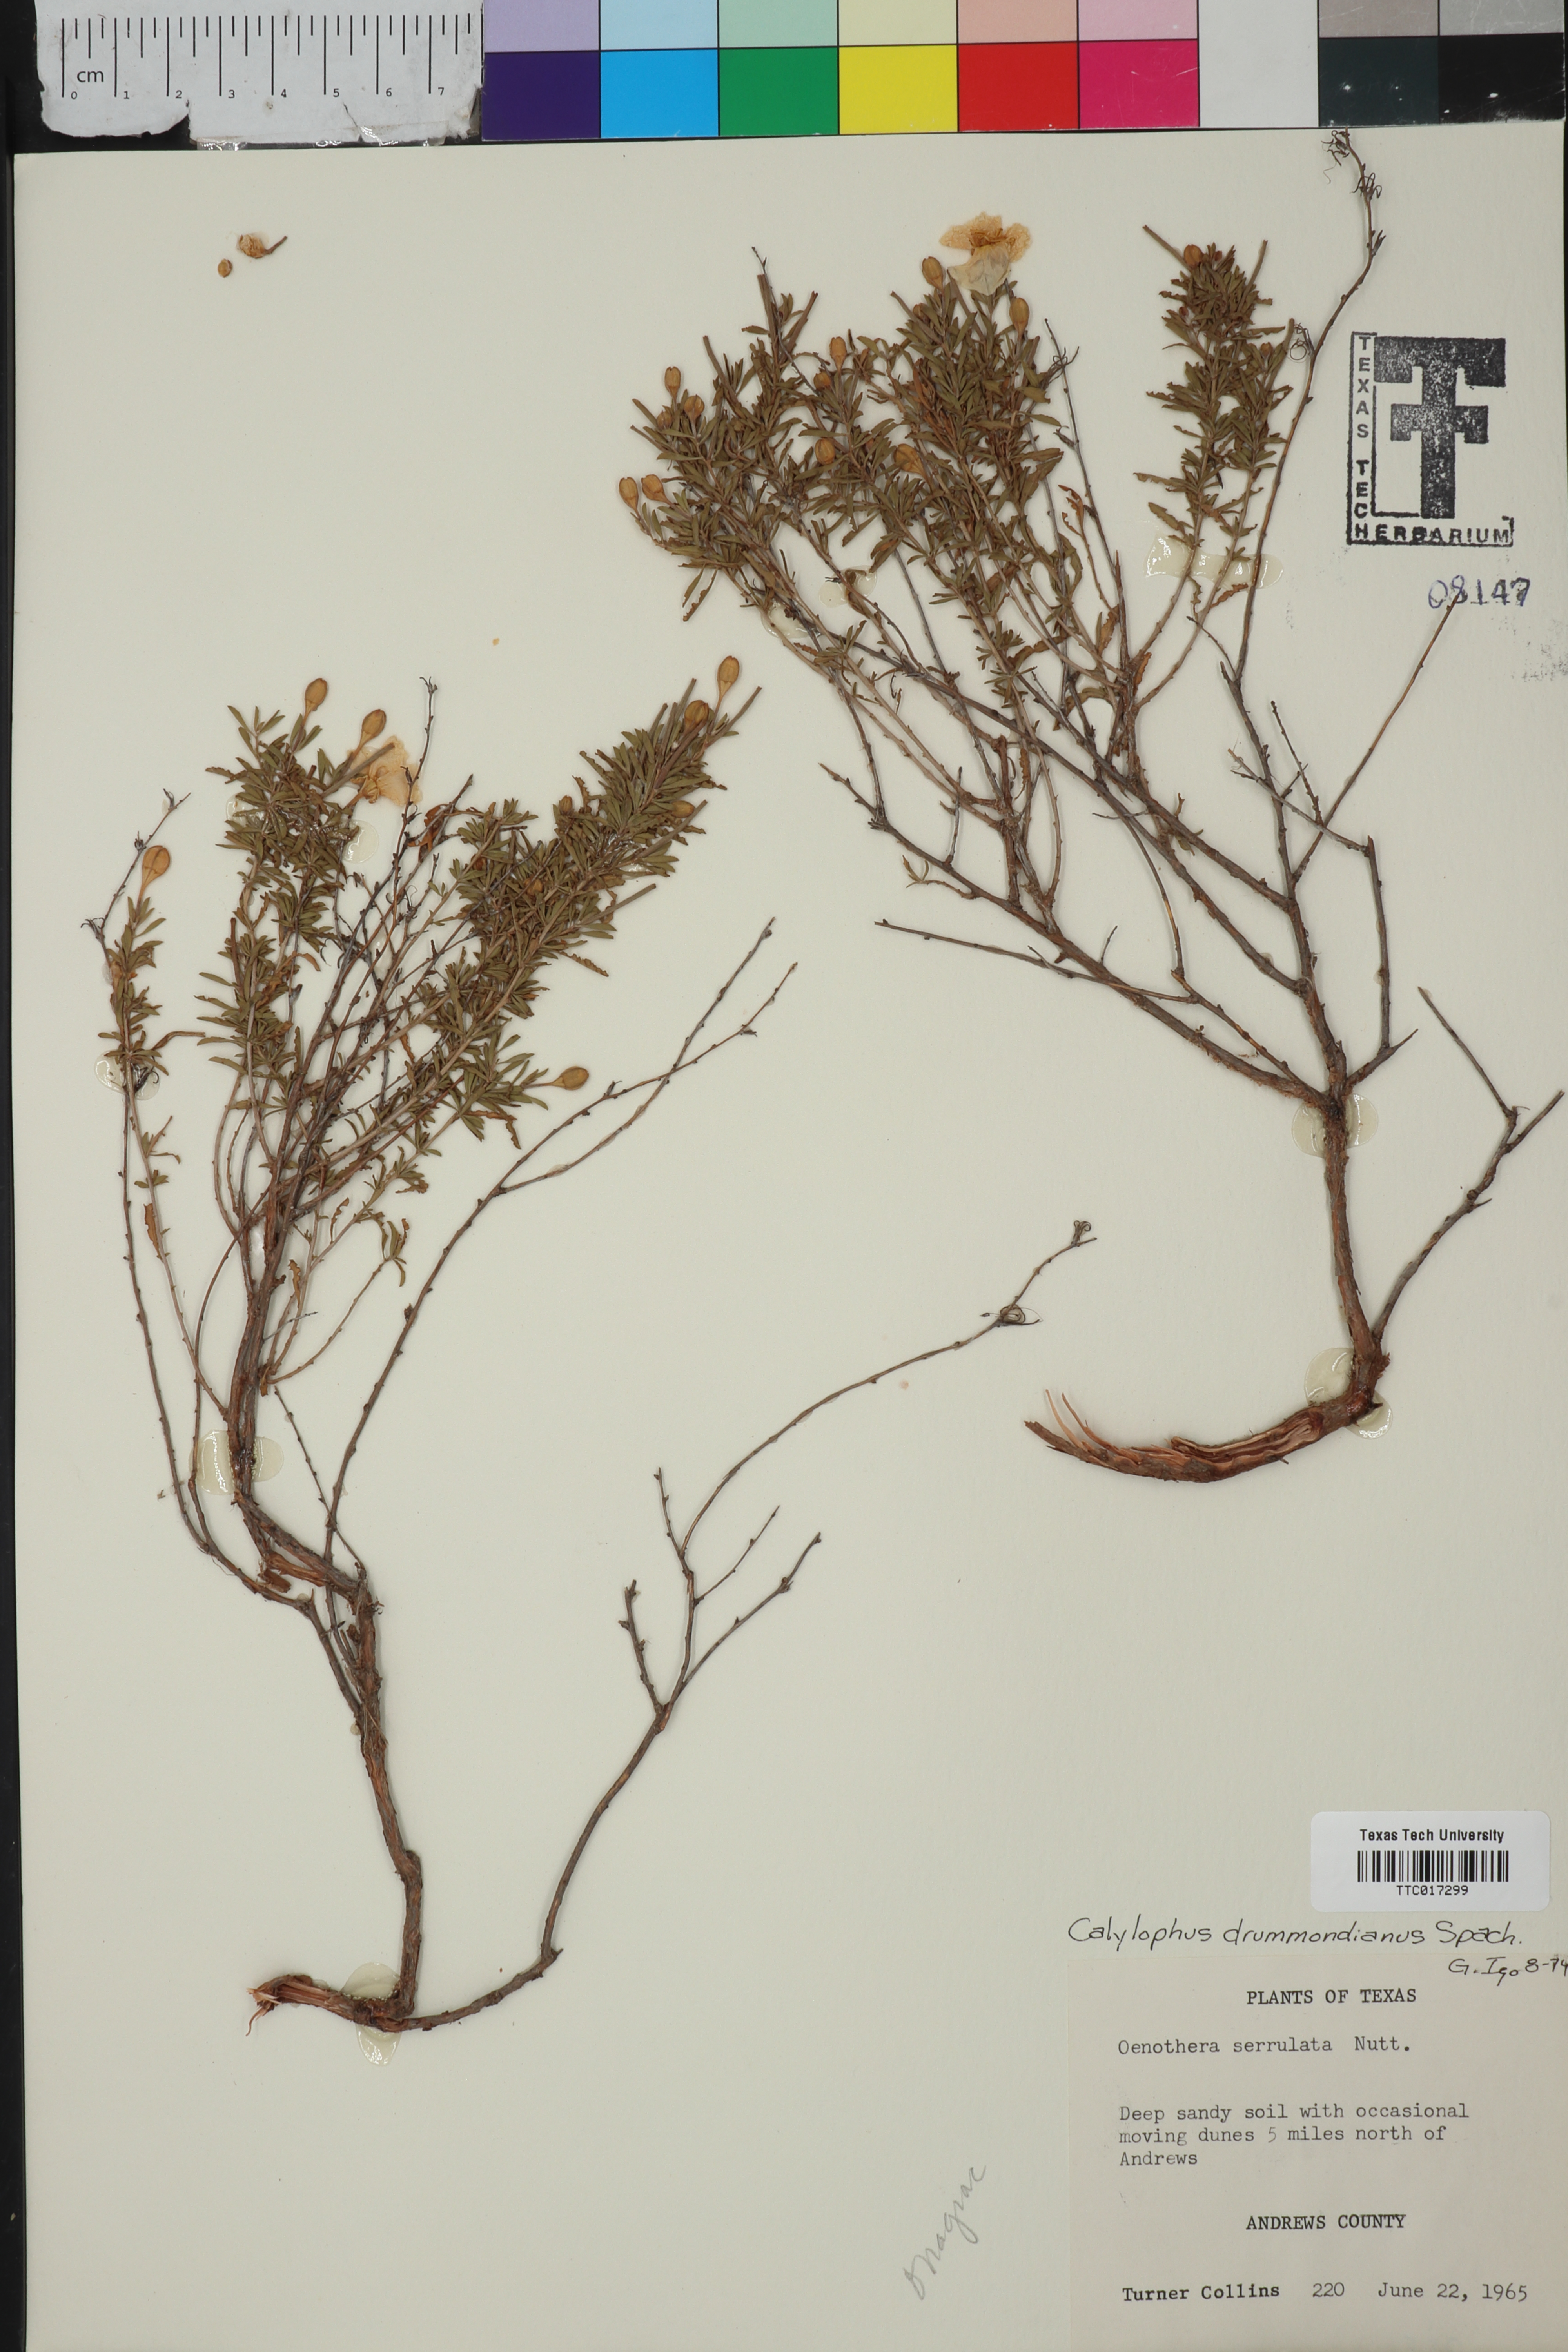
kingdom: Plantae
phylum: Tracheophyta
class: Magnoliopsida
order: Myrtales
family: Onagraceae
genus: Oenothera
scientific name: Oenothera serrulata
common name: Half-shrub calylophus
